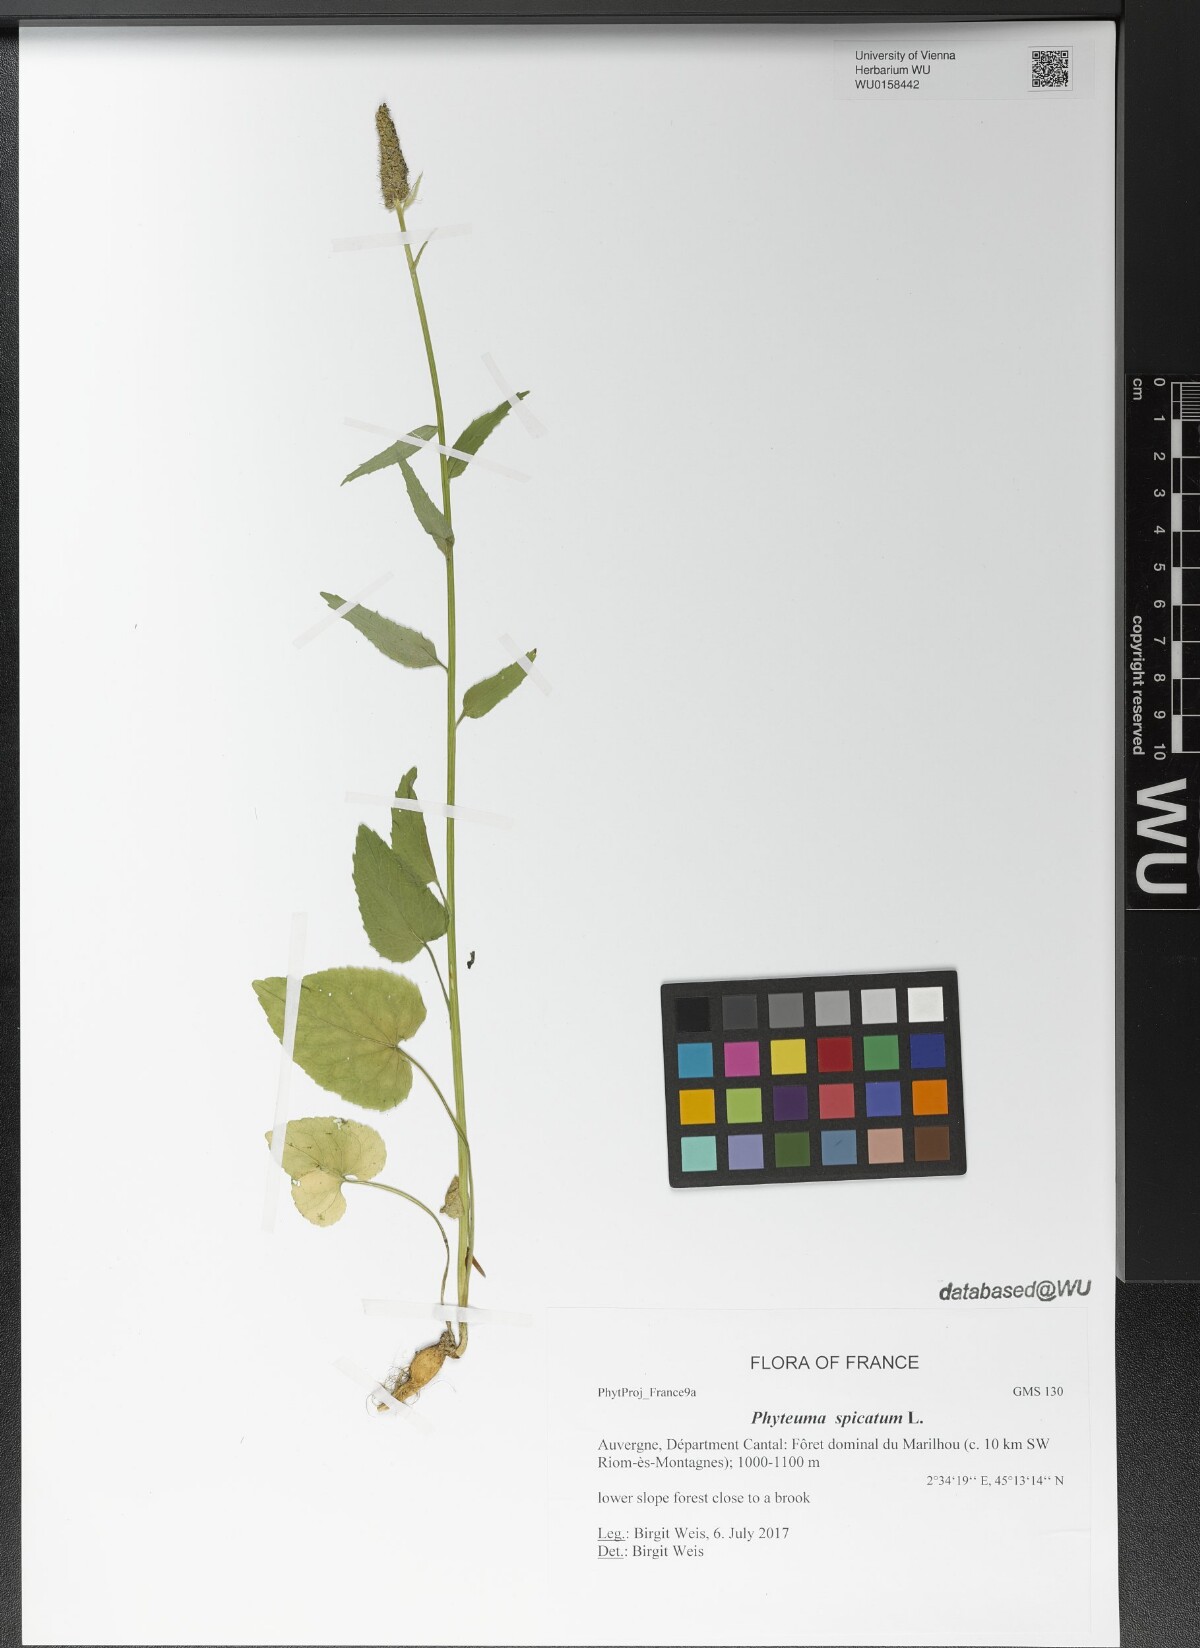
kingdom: Plantae
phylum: Tracheophyta
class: Magnoliopsida
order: Asterales
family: Campanulaceae
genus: Phyteuma
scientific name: Phyteuma spicatum
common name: Spiked rampion
